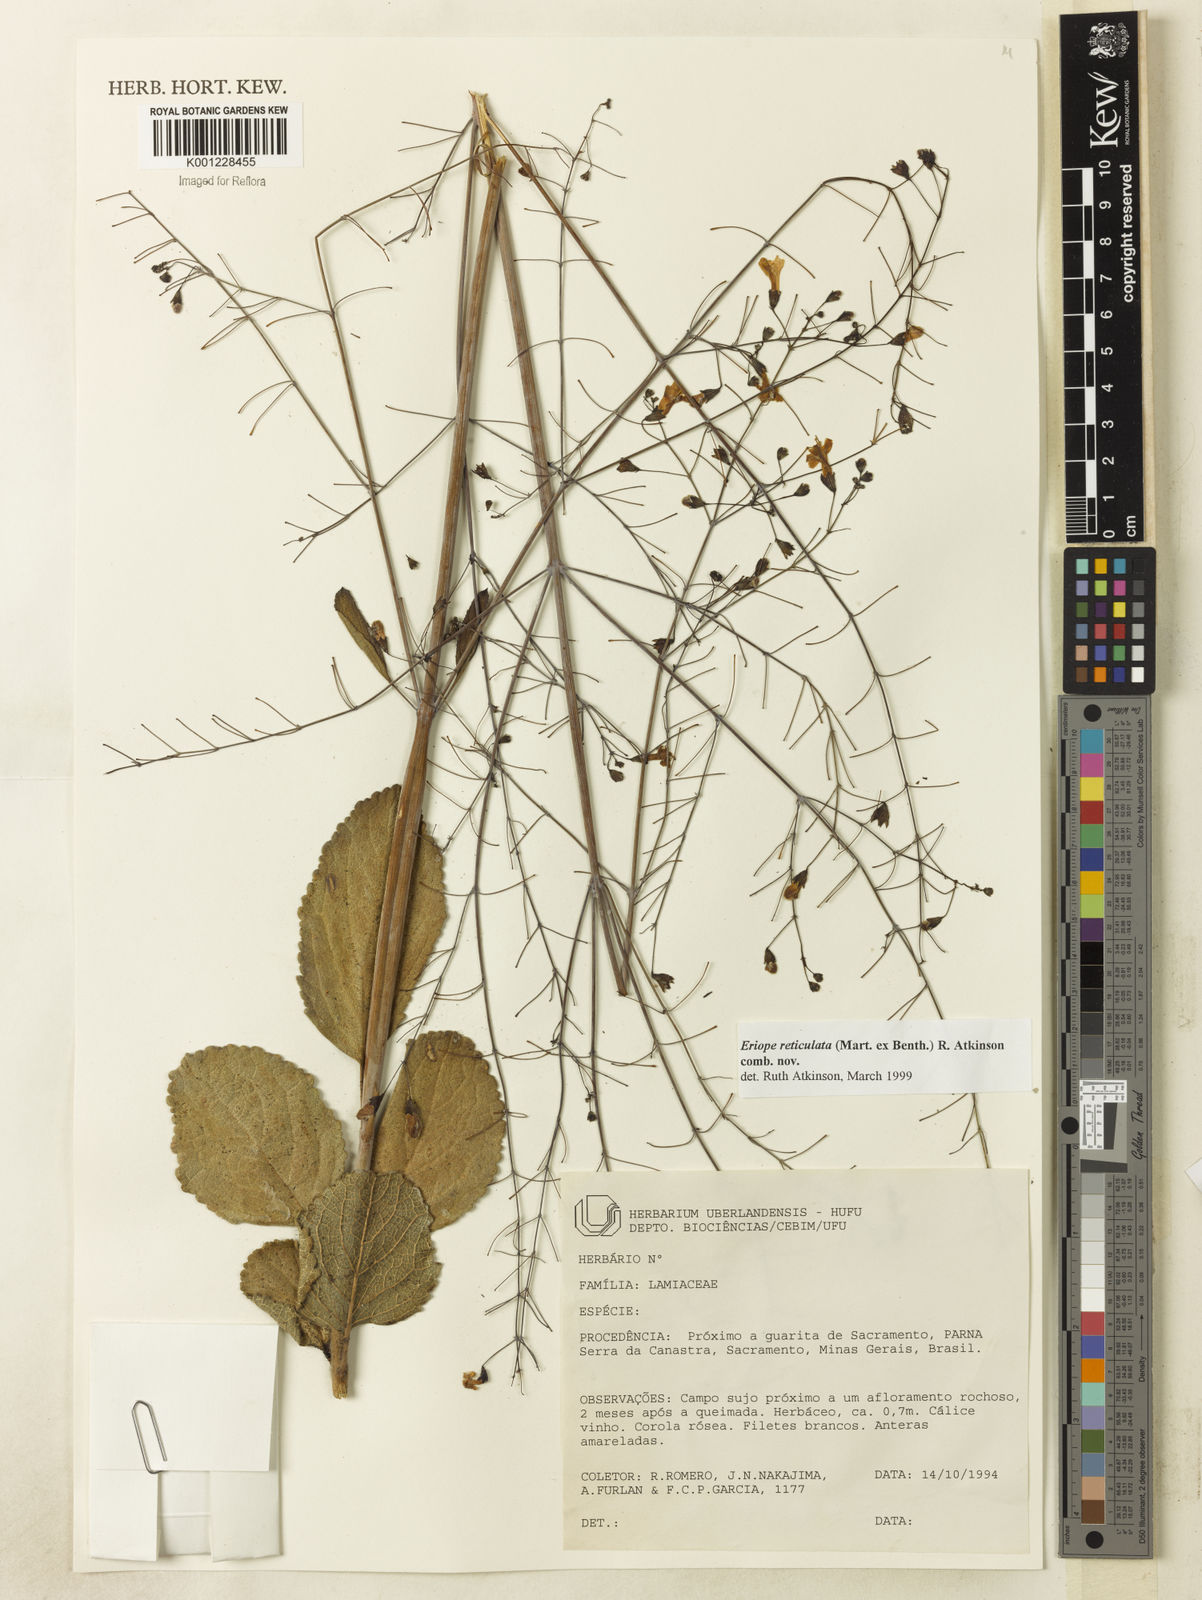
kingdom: Plantae
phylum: Tracheophyta
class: Magnoliopsida
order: Lamiales
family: Lamiaceae
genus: Hypenia
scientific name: Hypenia reticulata
